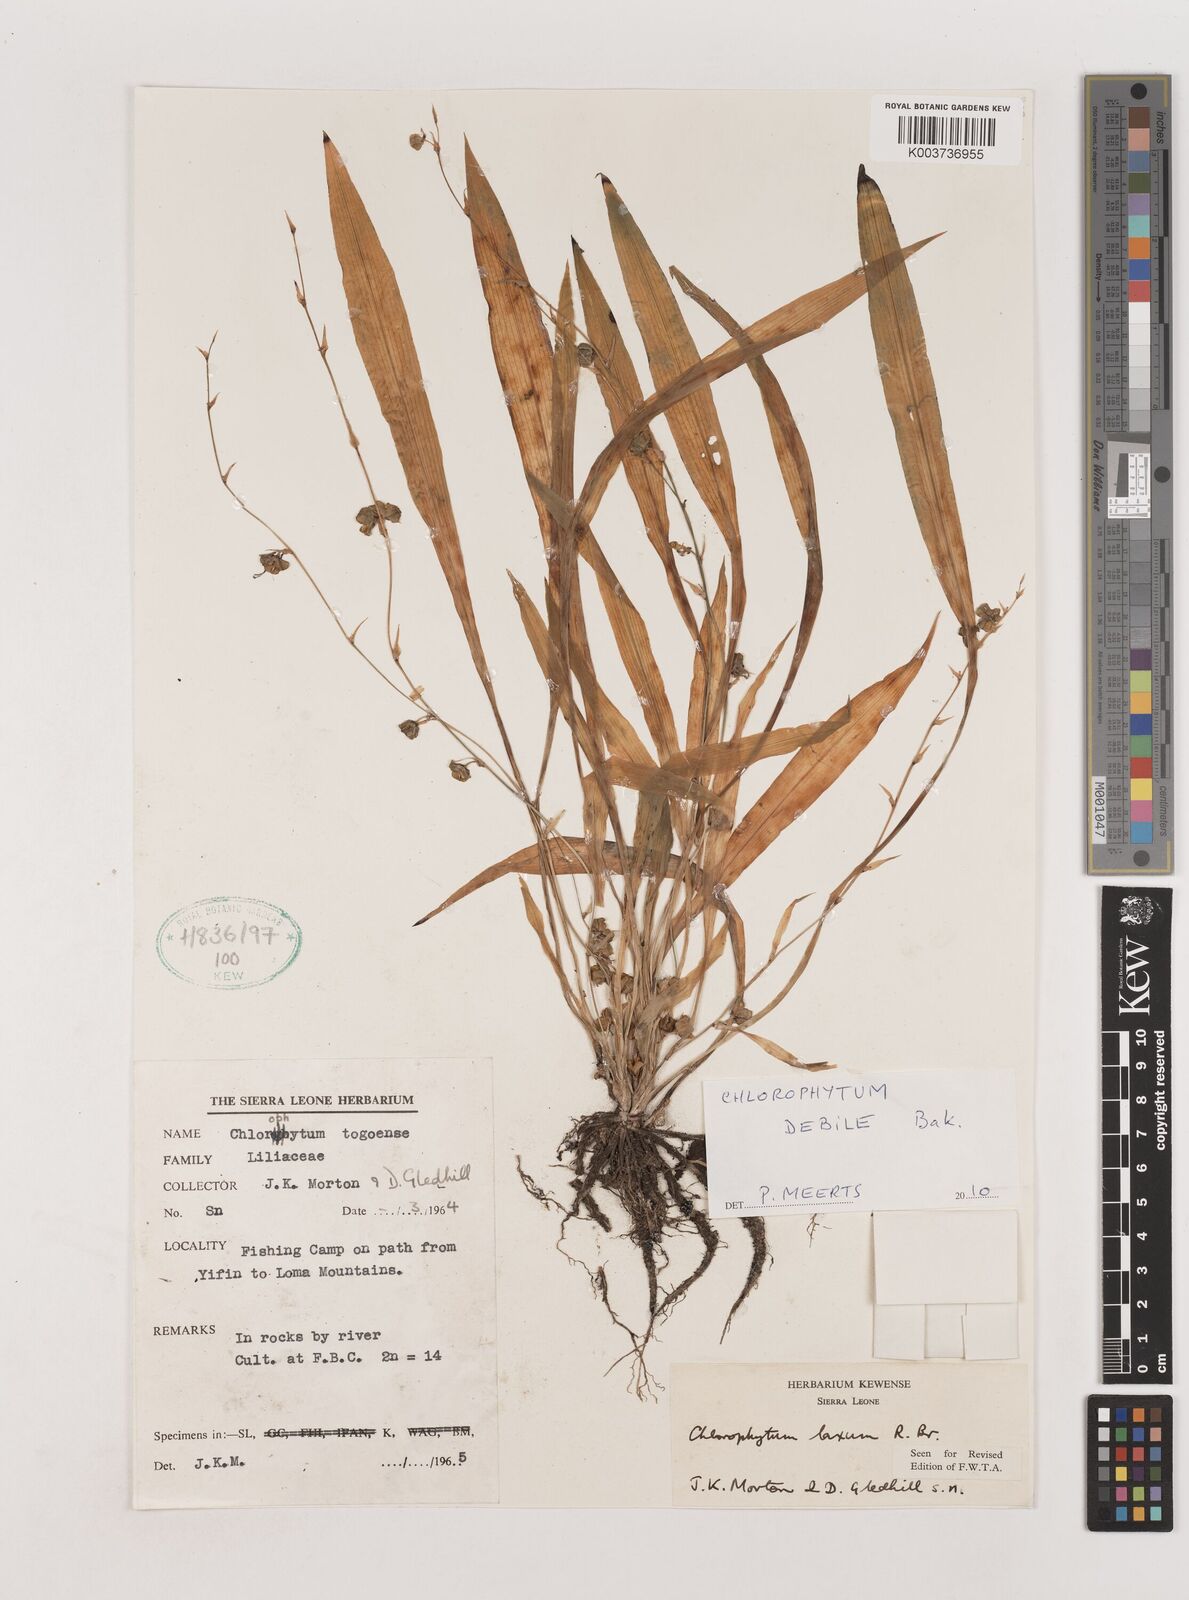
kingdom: Plantae
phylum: Tracheophyta
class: Liliopsida
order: Asparagales
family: Asparagaceae
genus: Chlorophytum
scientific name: Chlorophytum laxum
